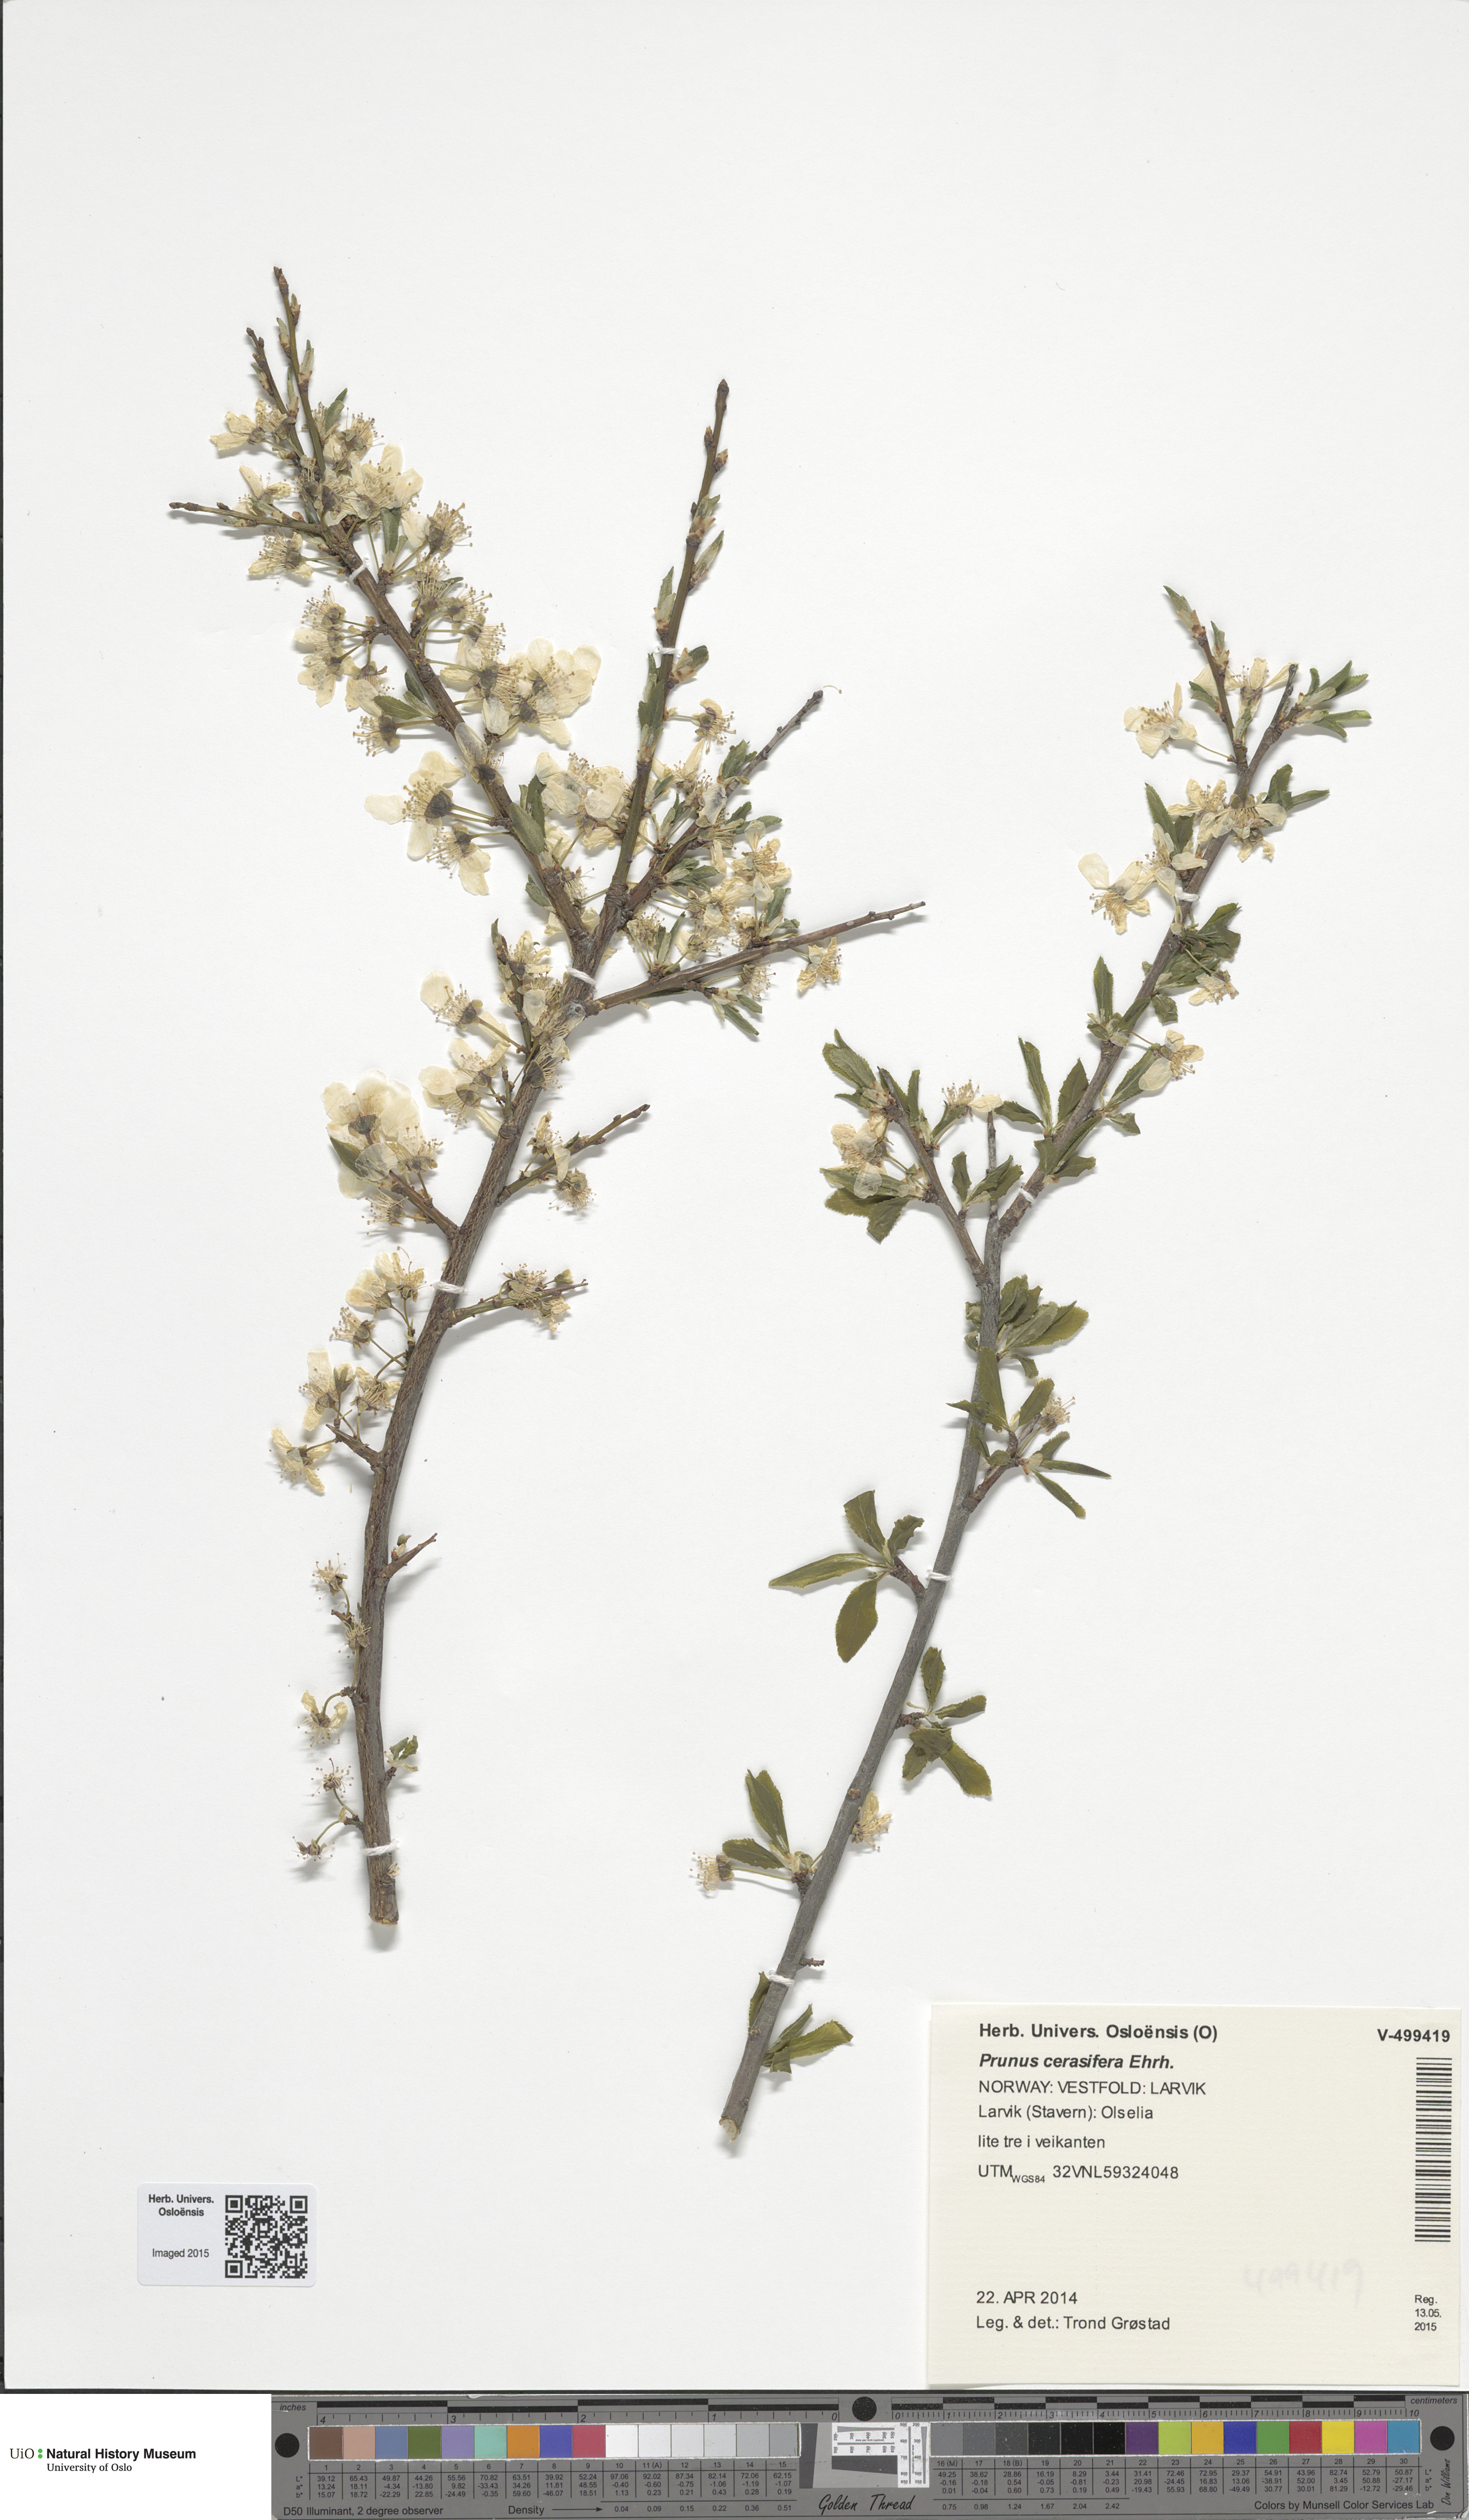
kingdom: Plantae
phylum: Tracheophyta
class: Magnoliopsida
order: Rosales
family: Rosaceae
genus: Prunus
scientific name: Prunus cerasifera
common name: Cherry plum
